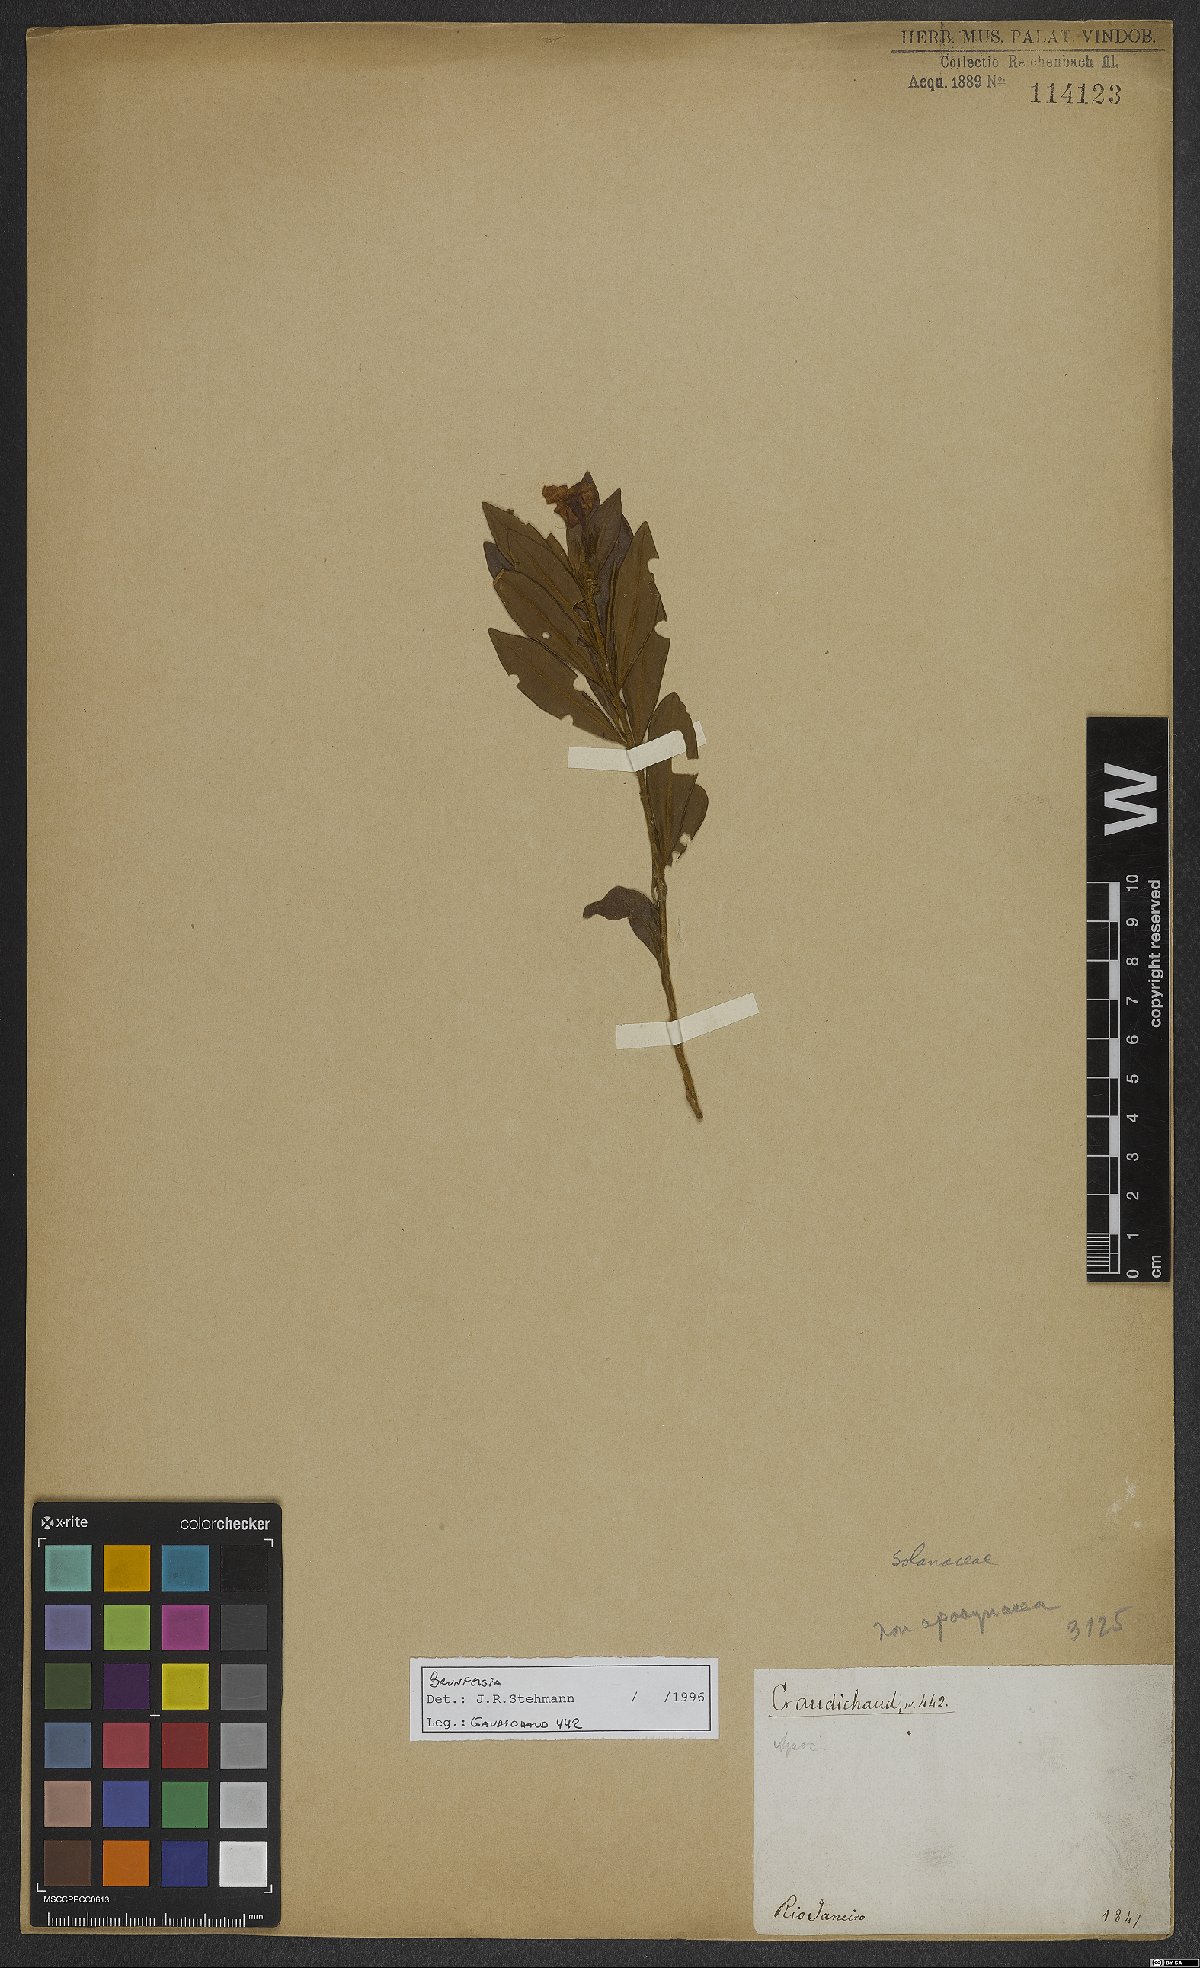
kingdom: Plantae
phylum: Tracheophyta
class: Magnoliopsida
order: Solanales
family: Solanaceae
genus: Brunfelsia
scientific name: Brunfelsia
